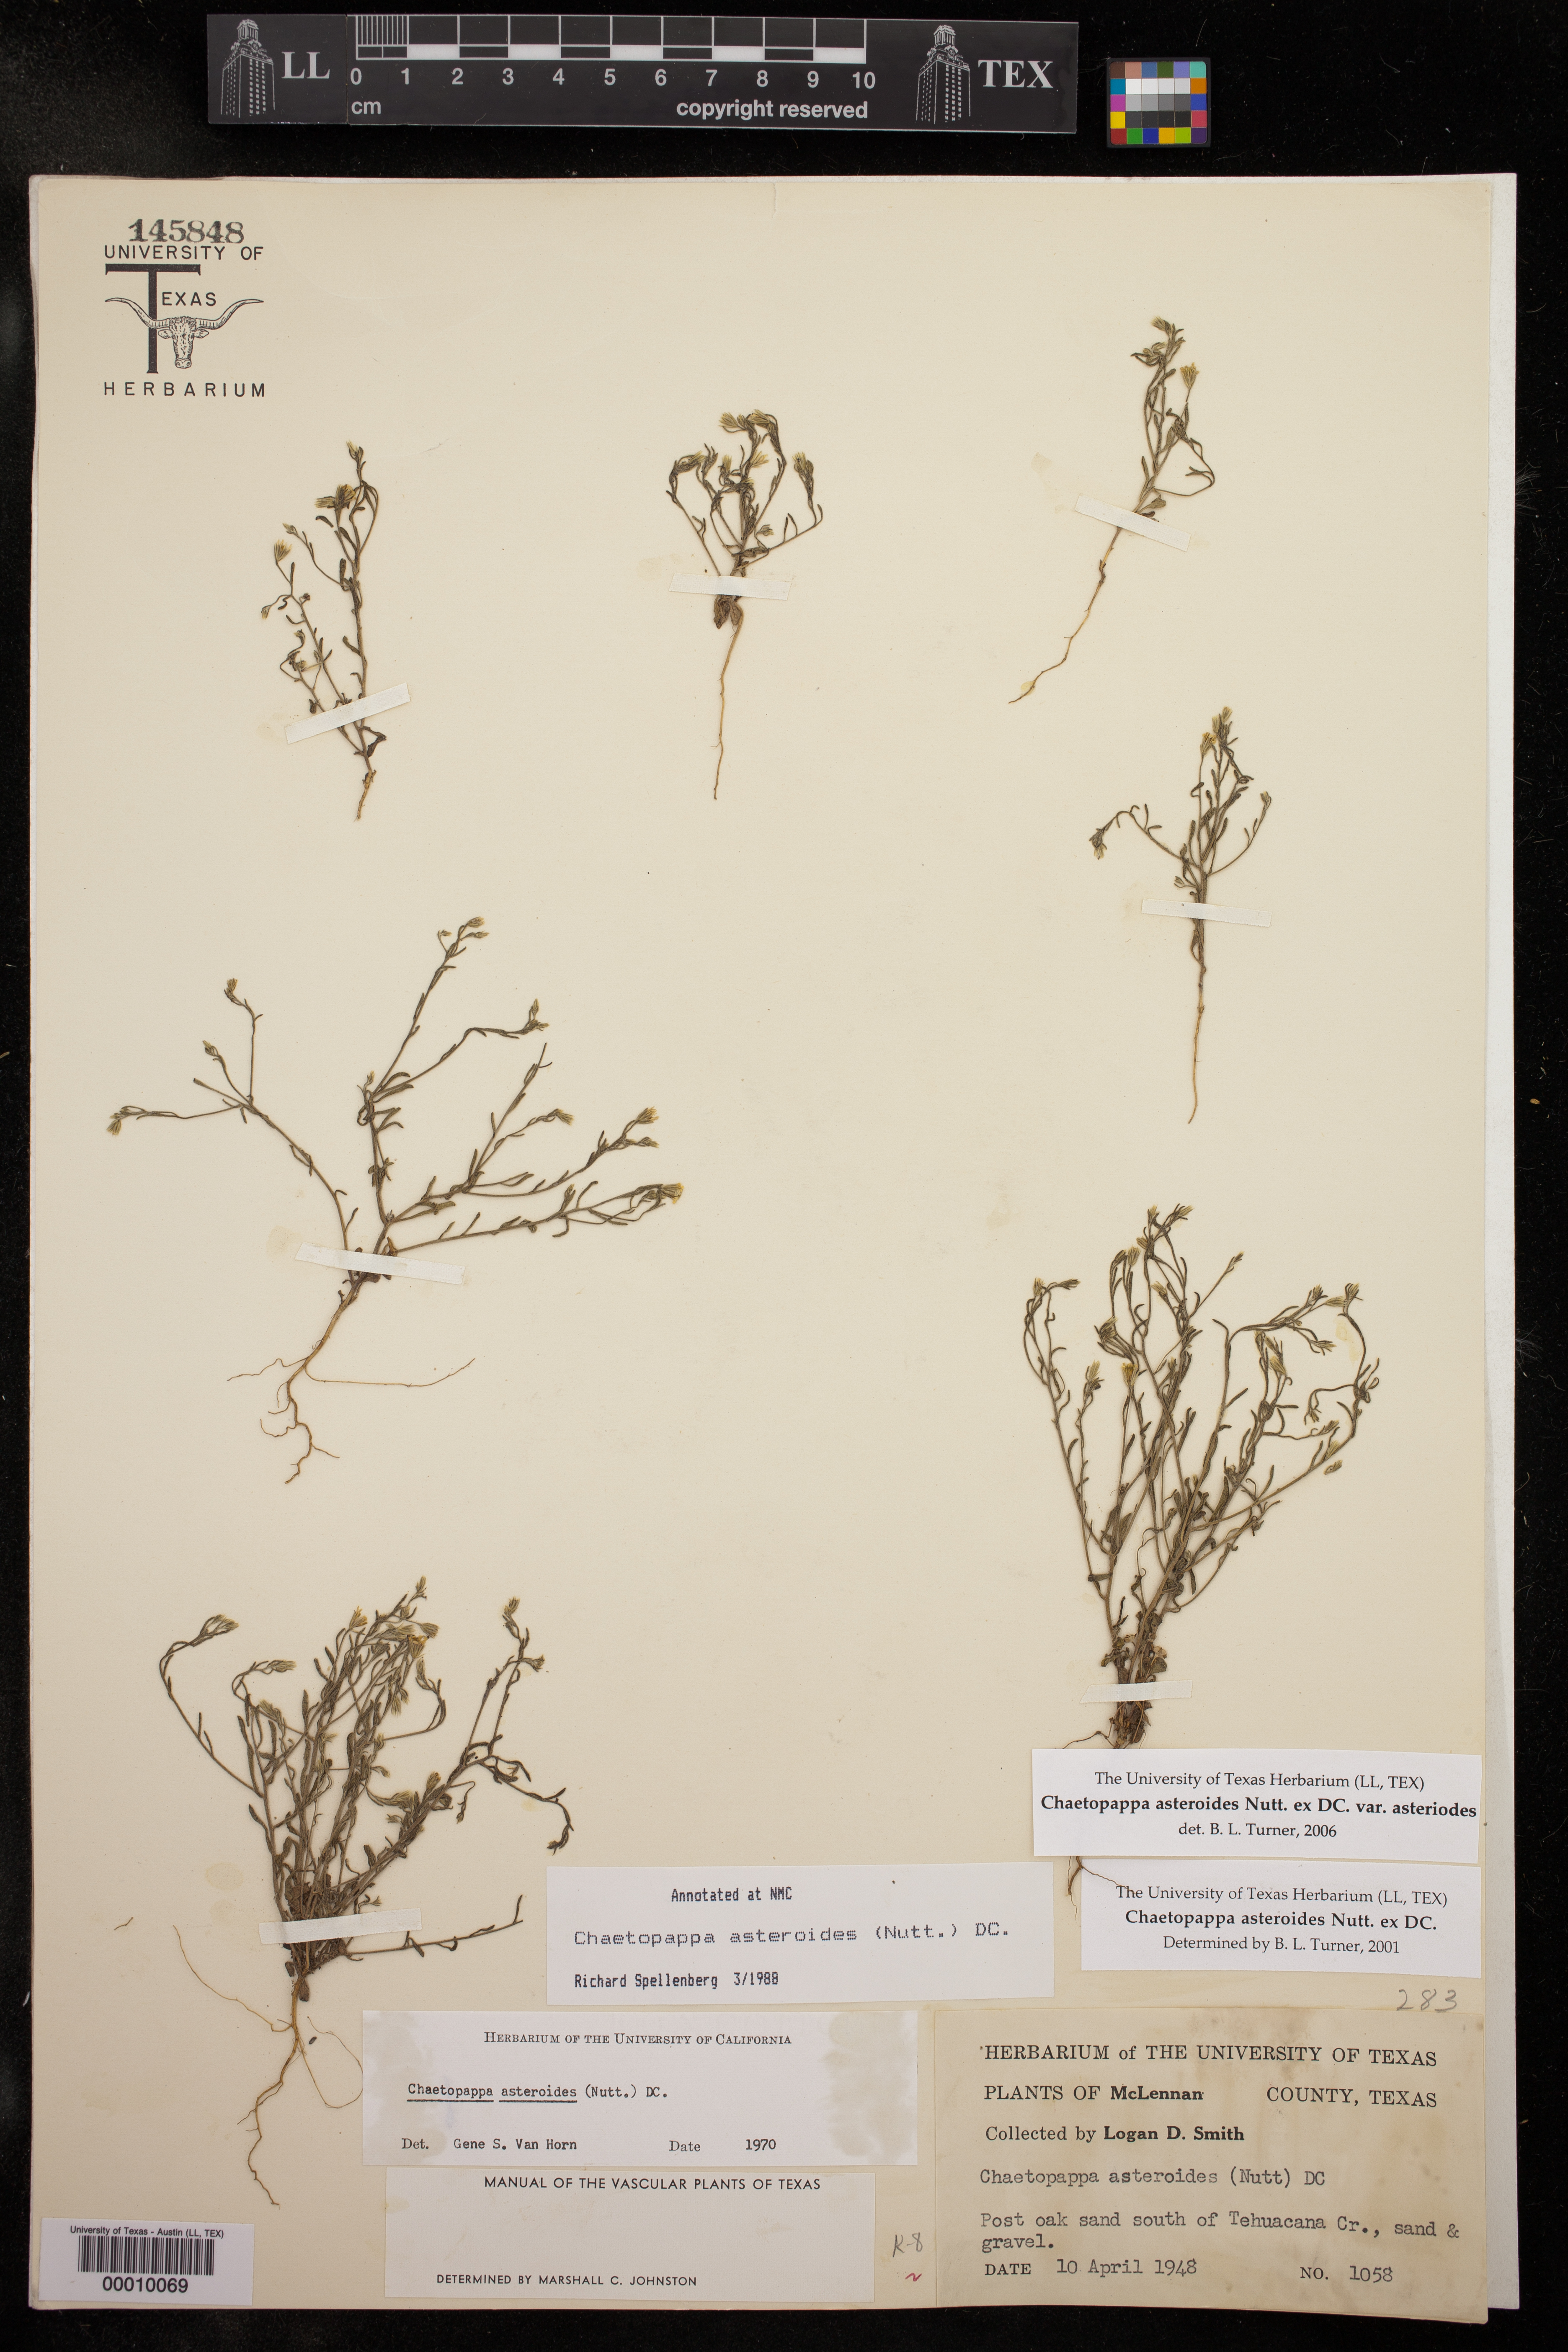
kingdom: Plantae
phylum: Tracheophyta
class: Magnoliopsida
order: Asterales
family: Asteraceae
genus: Chaetopappa
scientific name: Chaetopappa asteroides
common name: Tiny lazy daisy
